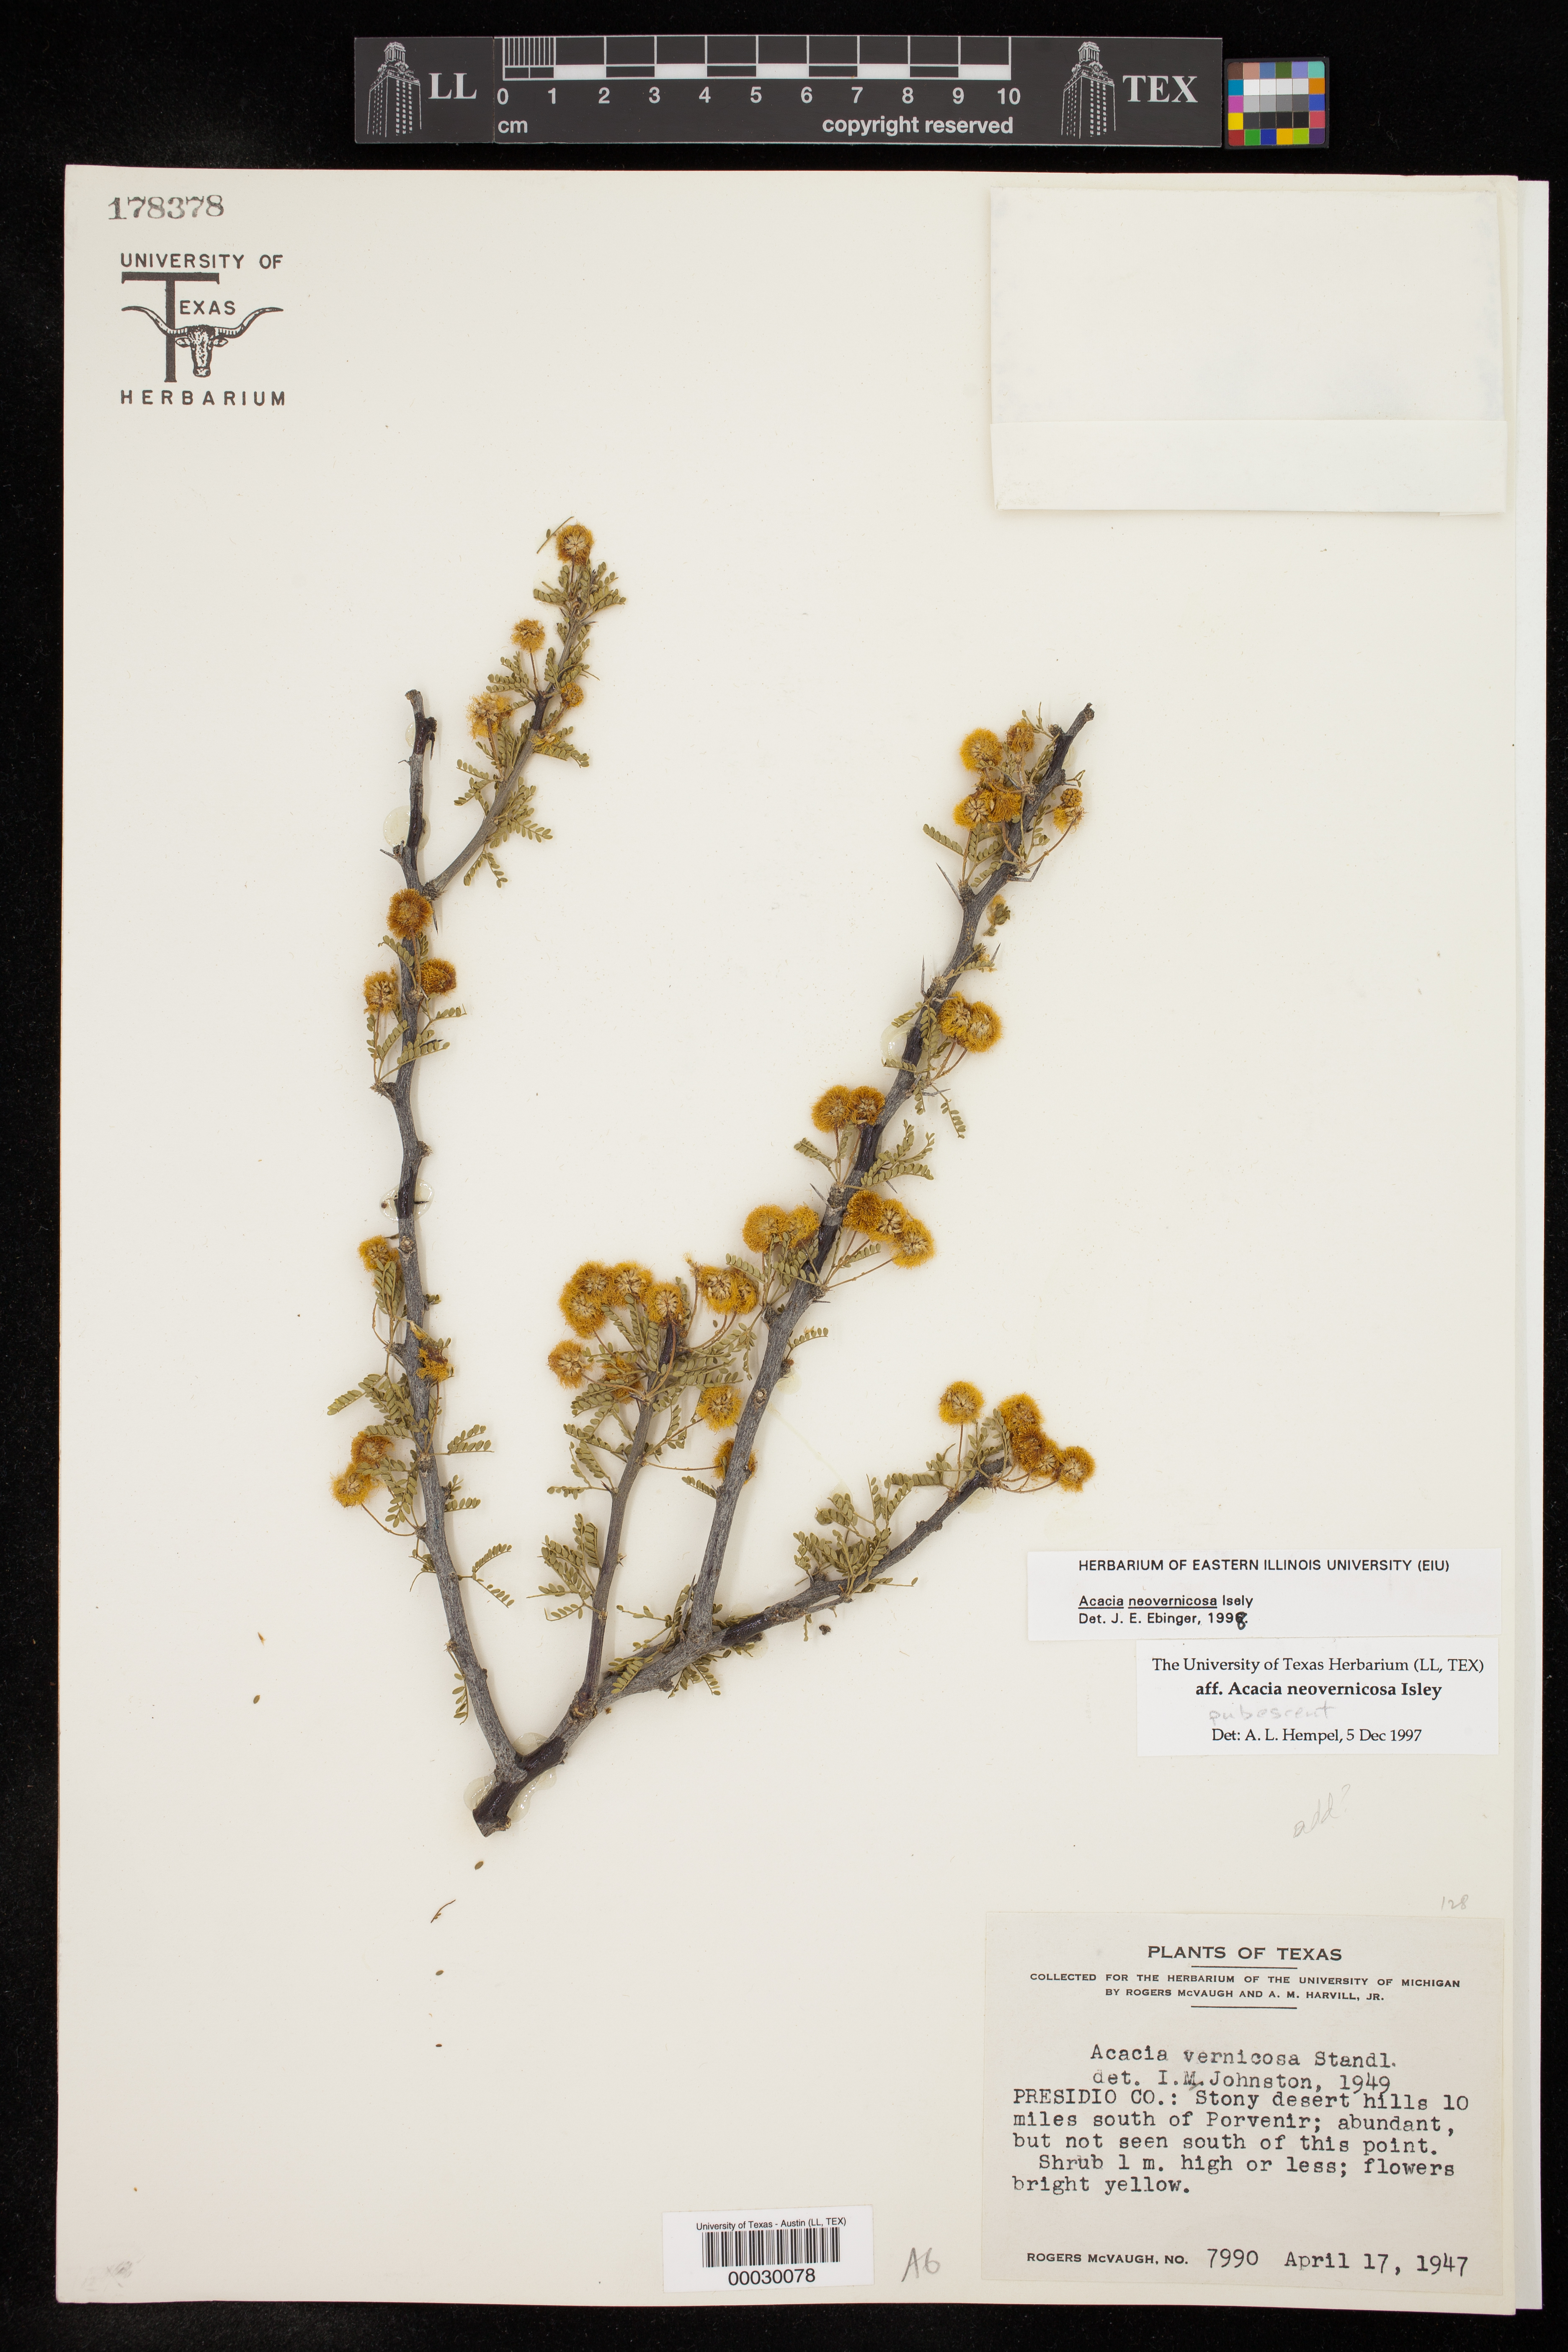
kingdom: Plantae
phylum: Tracheophyta
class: Magnoliopsida
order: Fabales
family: Fabaceae
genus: Vachellia
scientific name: Vachellia vernicosa
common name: Viscid acacia
